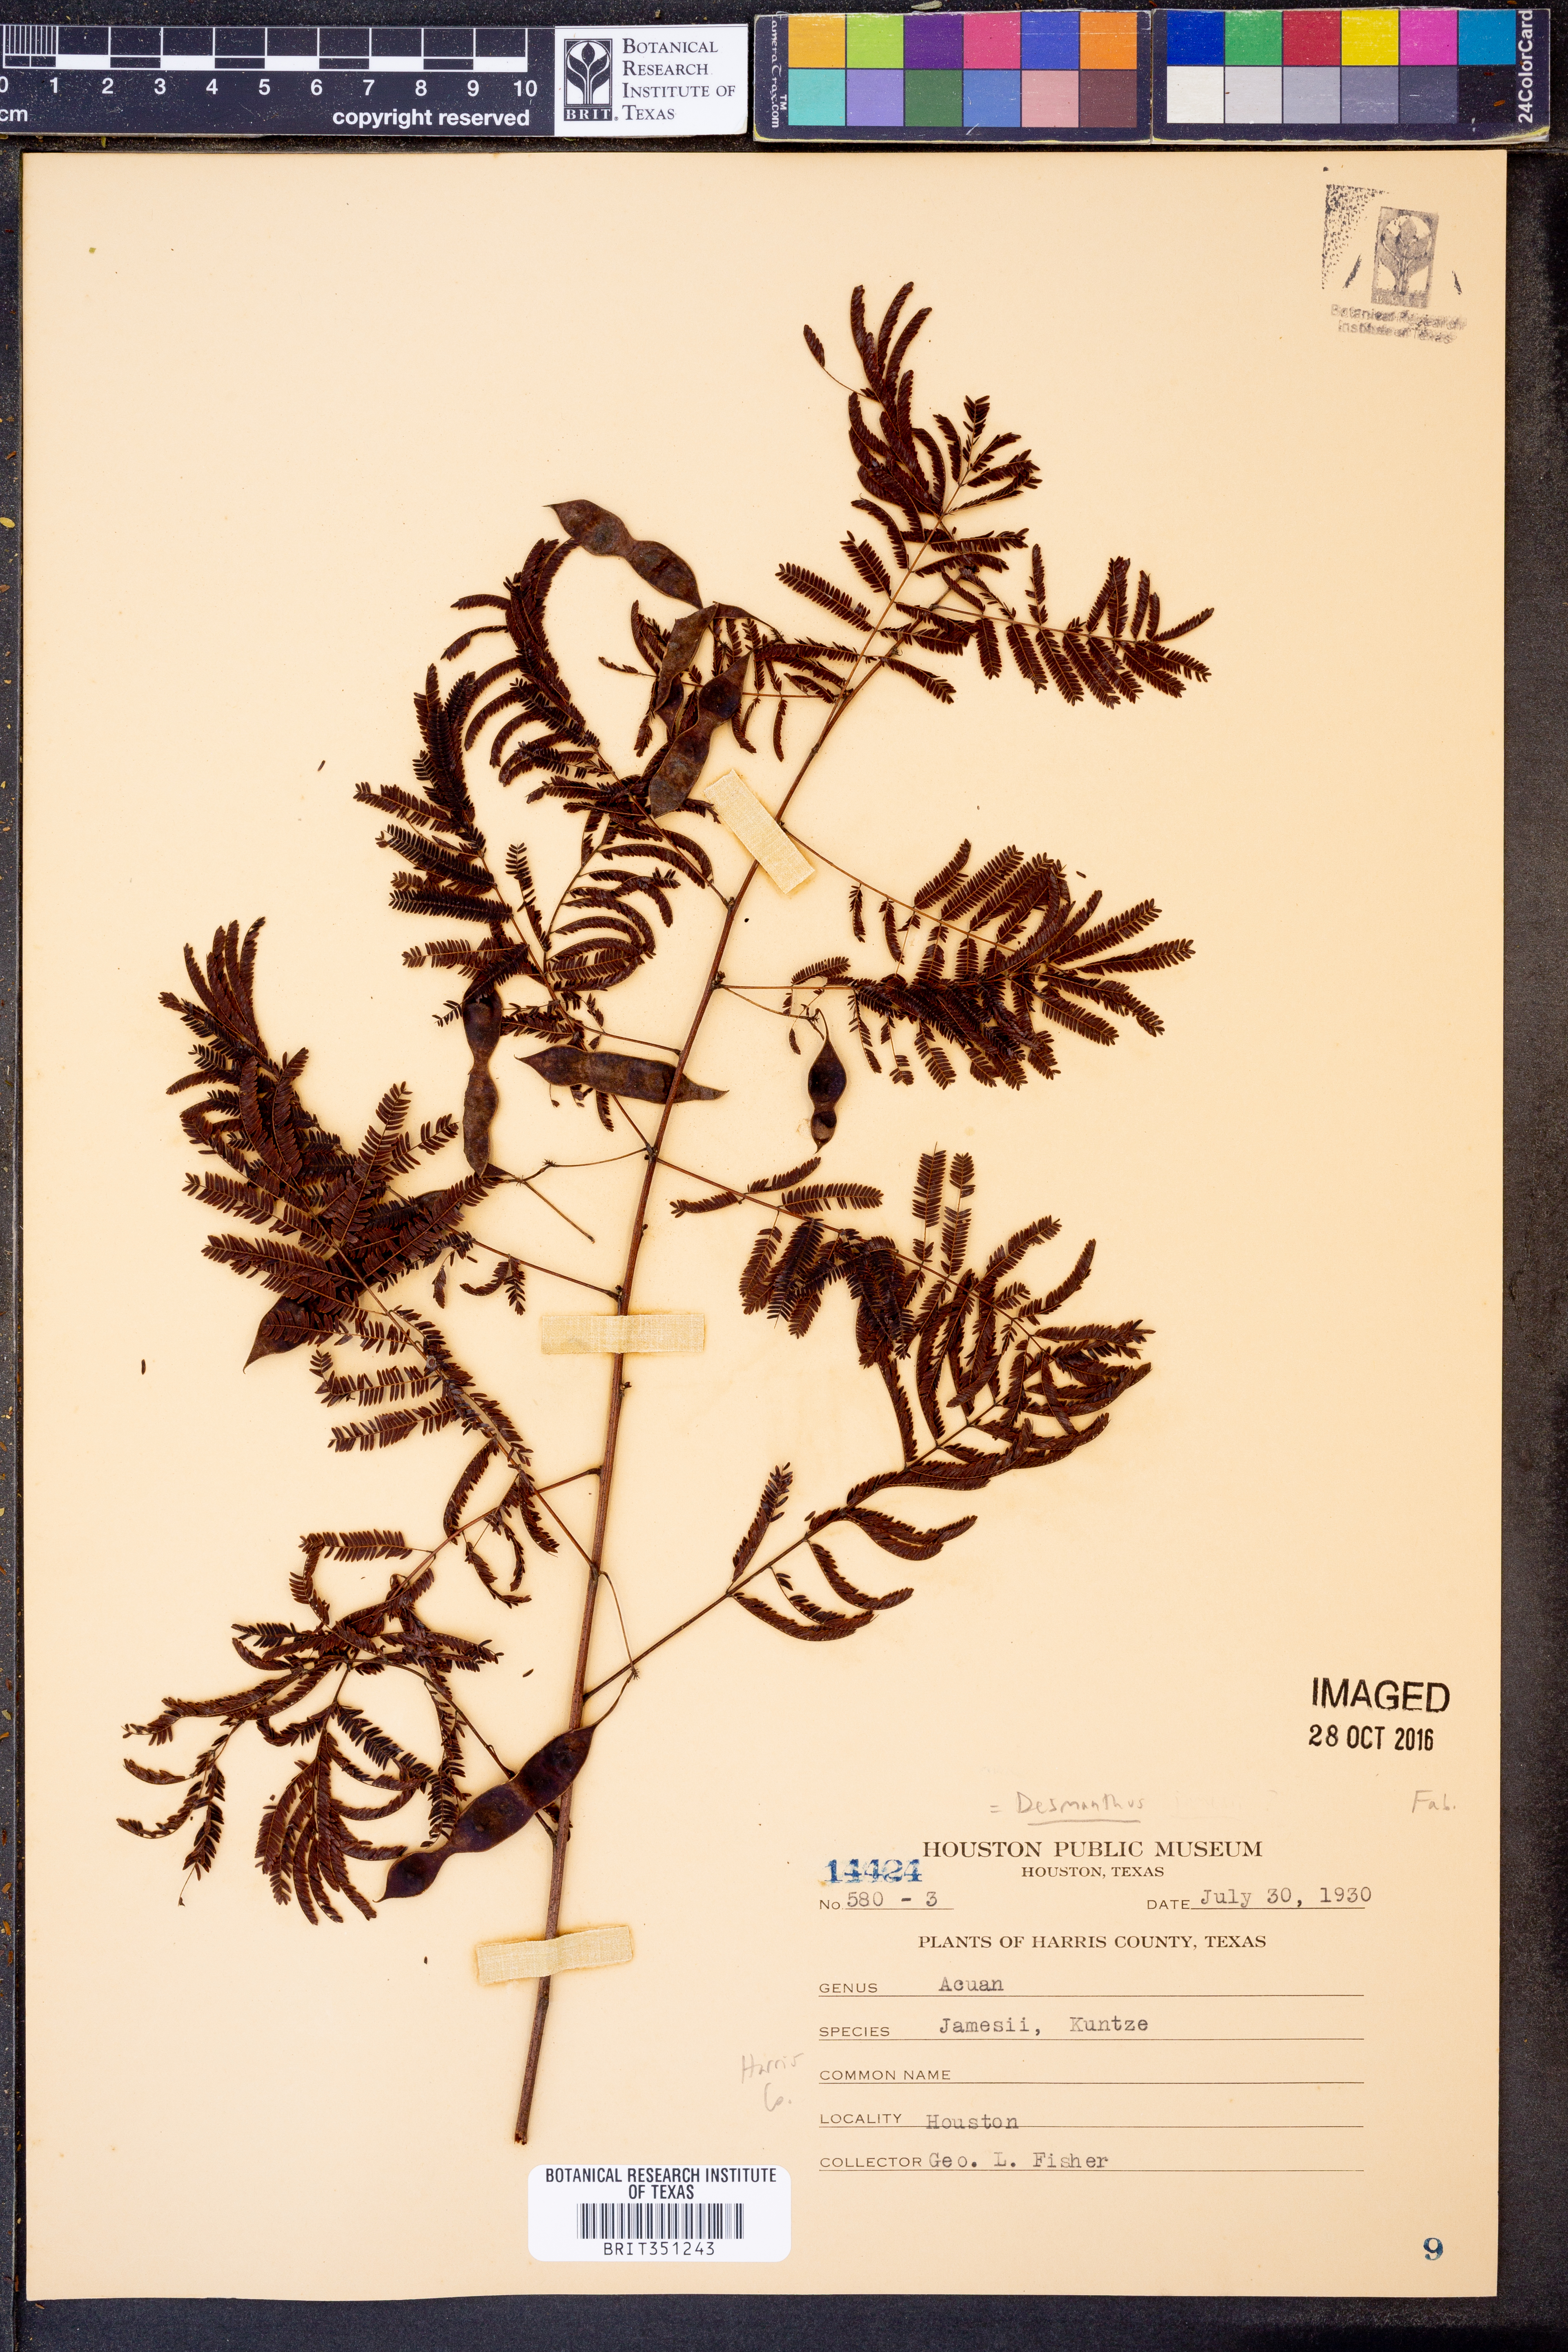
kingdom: Plantae
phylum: Tracheophyta
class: Magnoliopsida
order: Fabales
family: Fabaceae
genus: Desmanthus
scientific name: Desmanthus cooleyi
